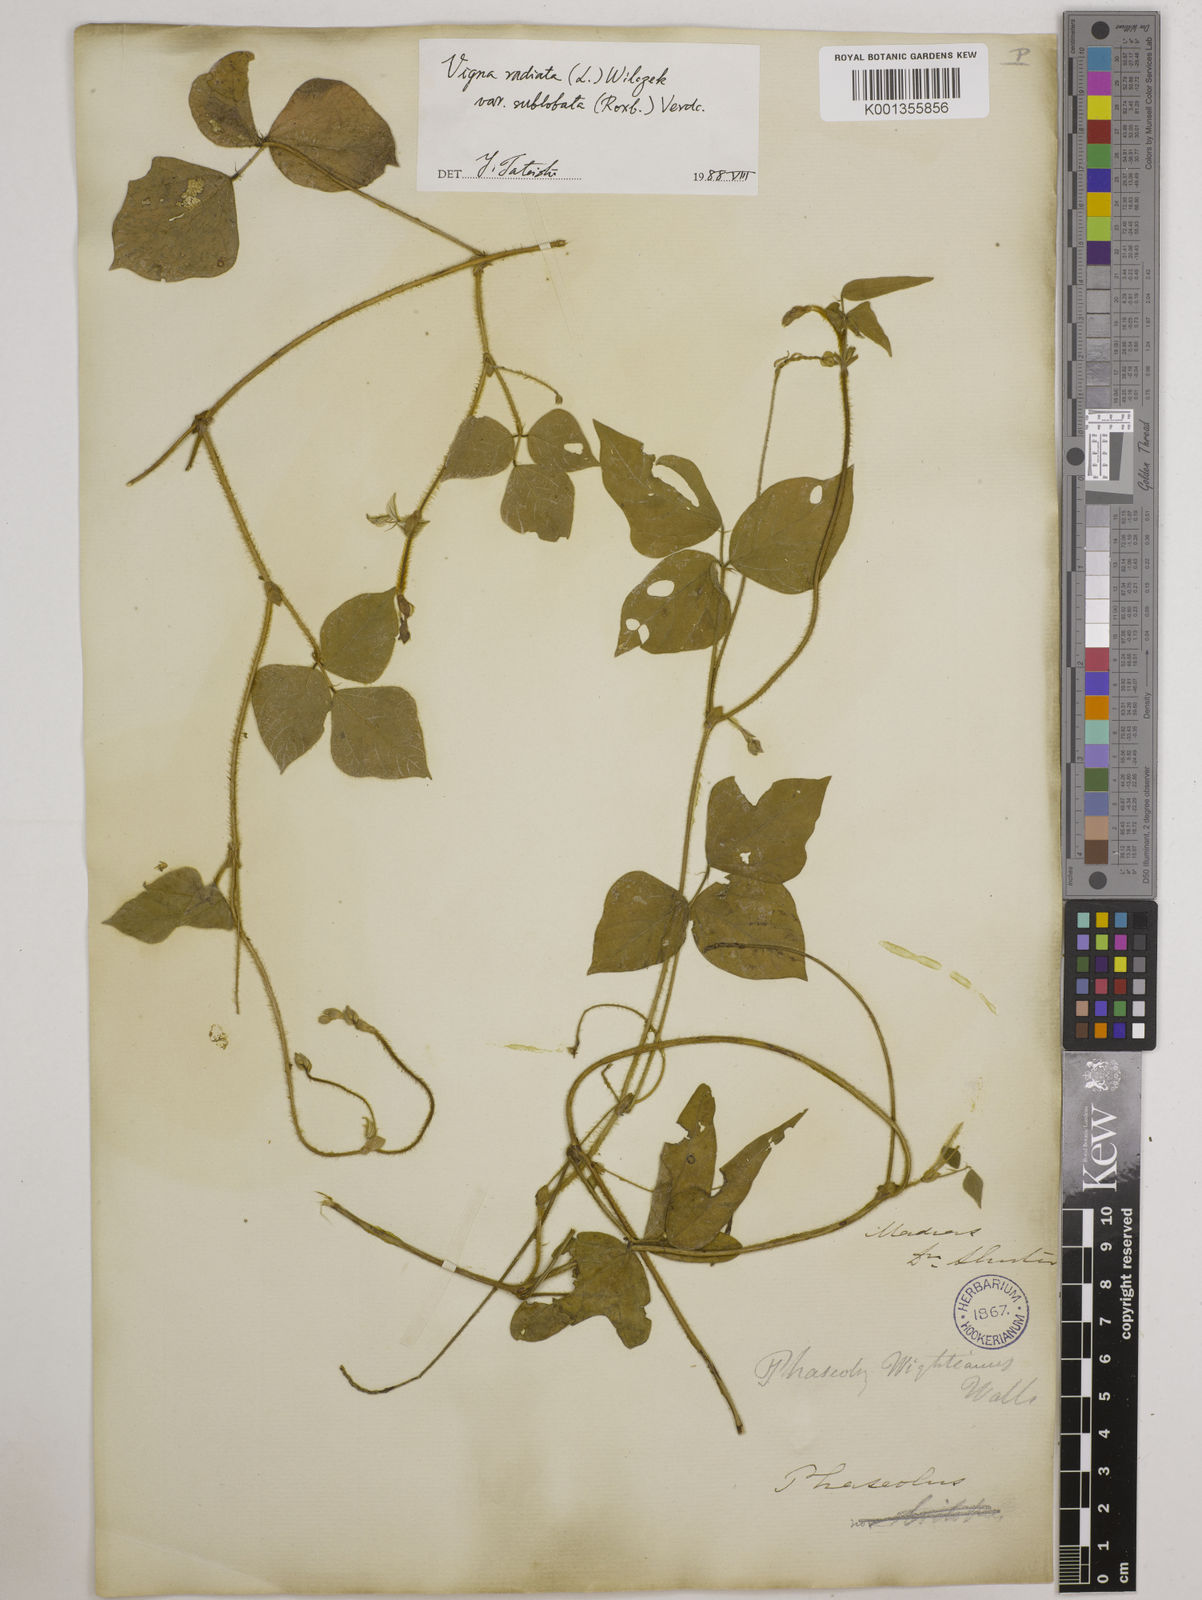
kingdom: Plantae
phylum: Tracheophyta
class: Magnoliopsida
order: Fabales
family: Fabaceae
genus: Vigna
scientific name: Vigna radiata
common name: Mung-bean
